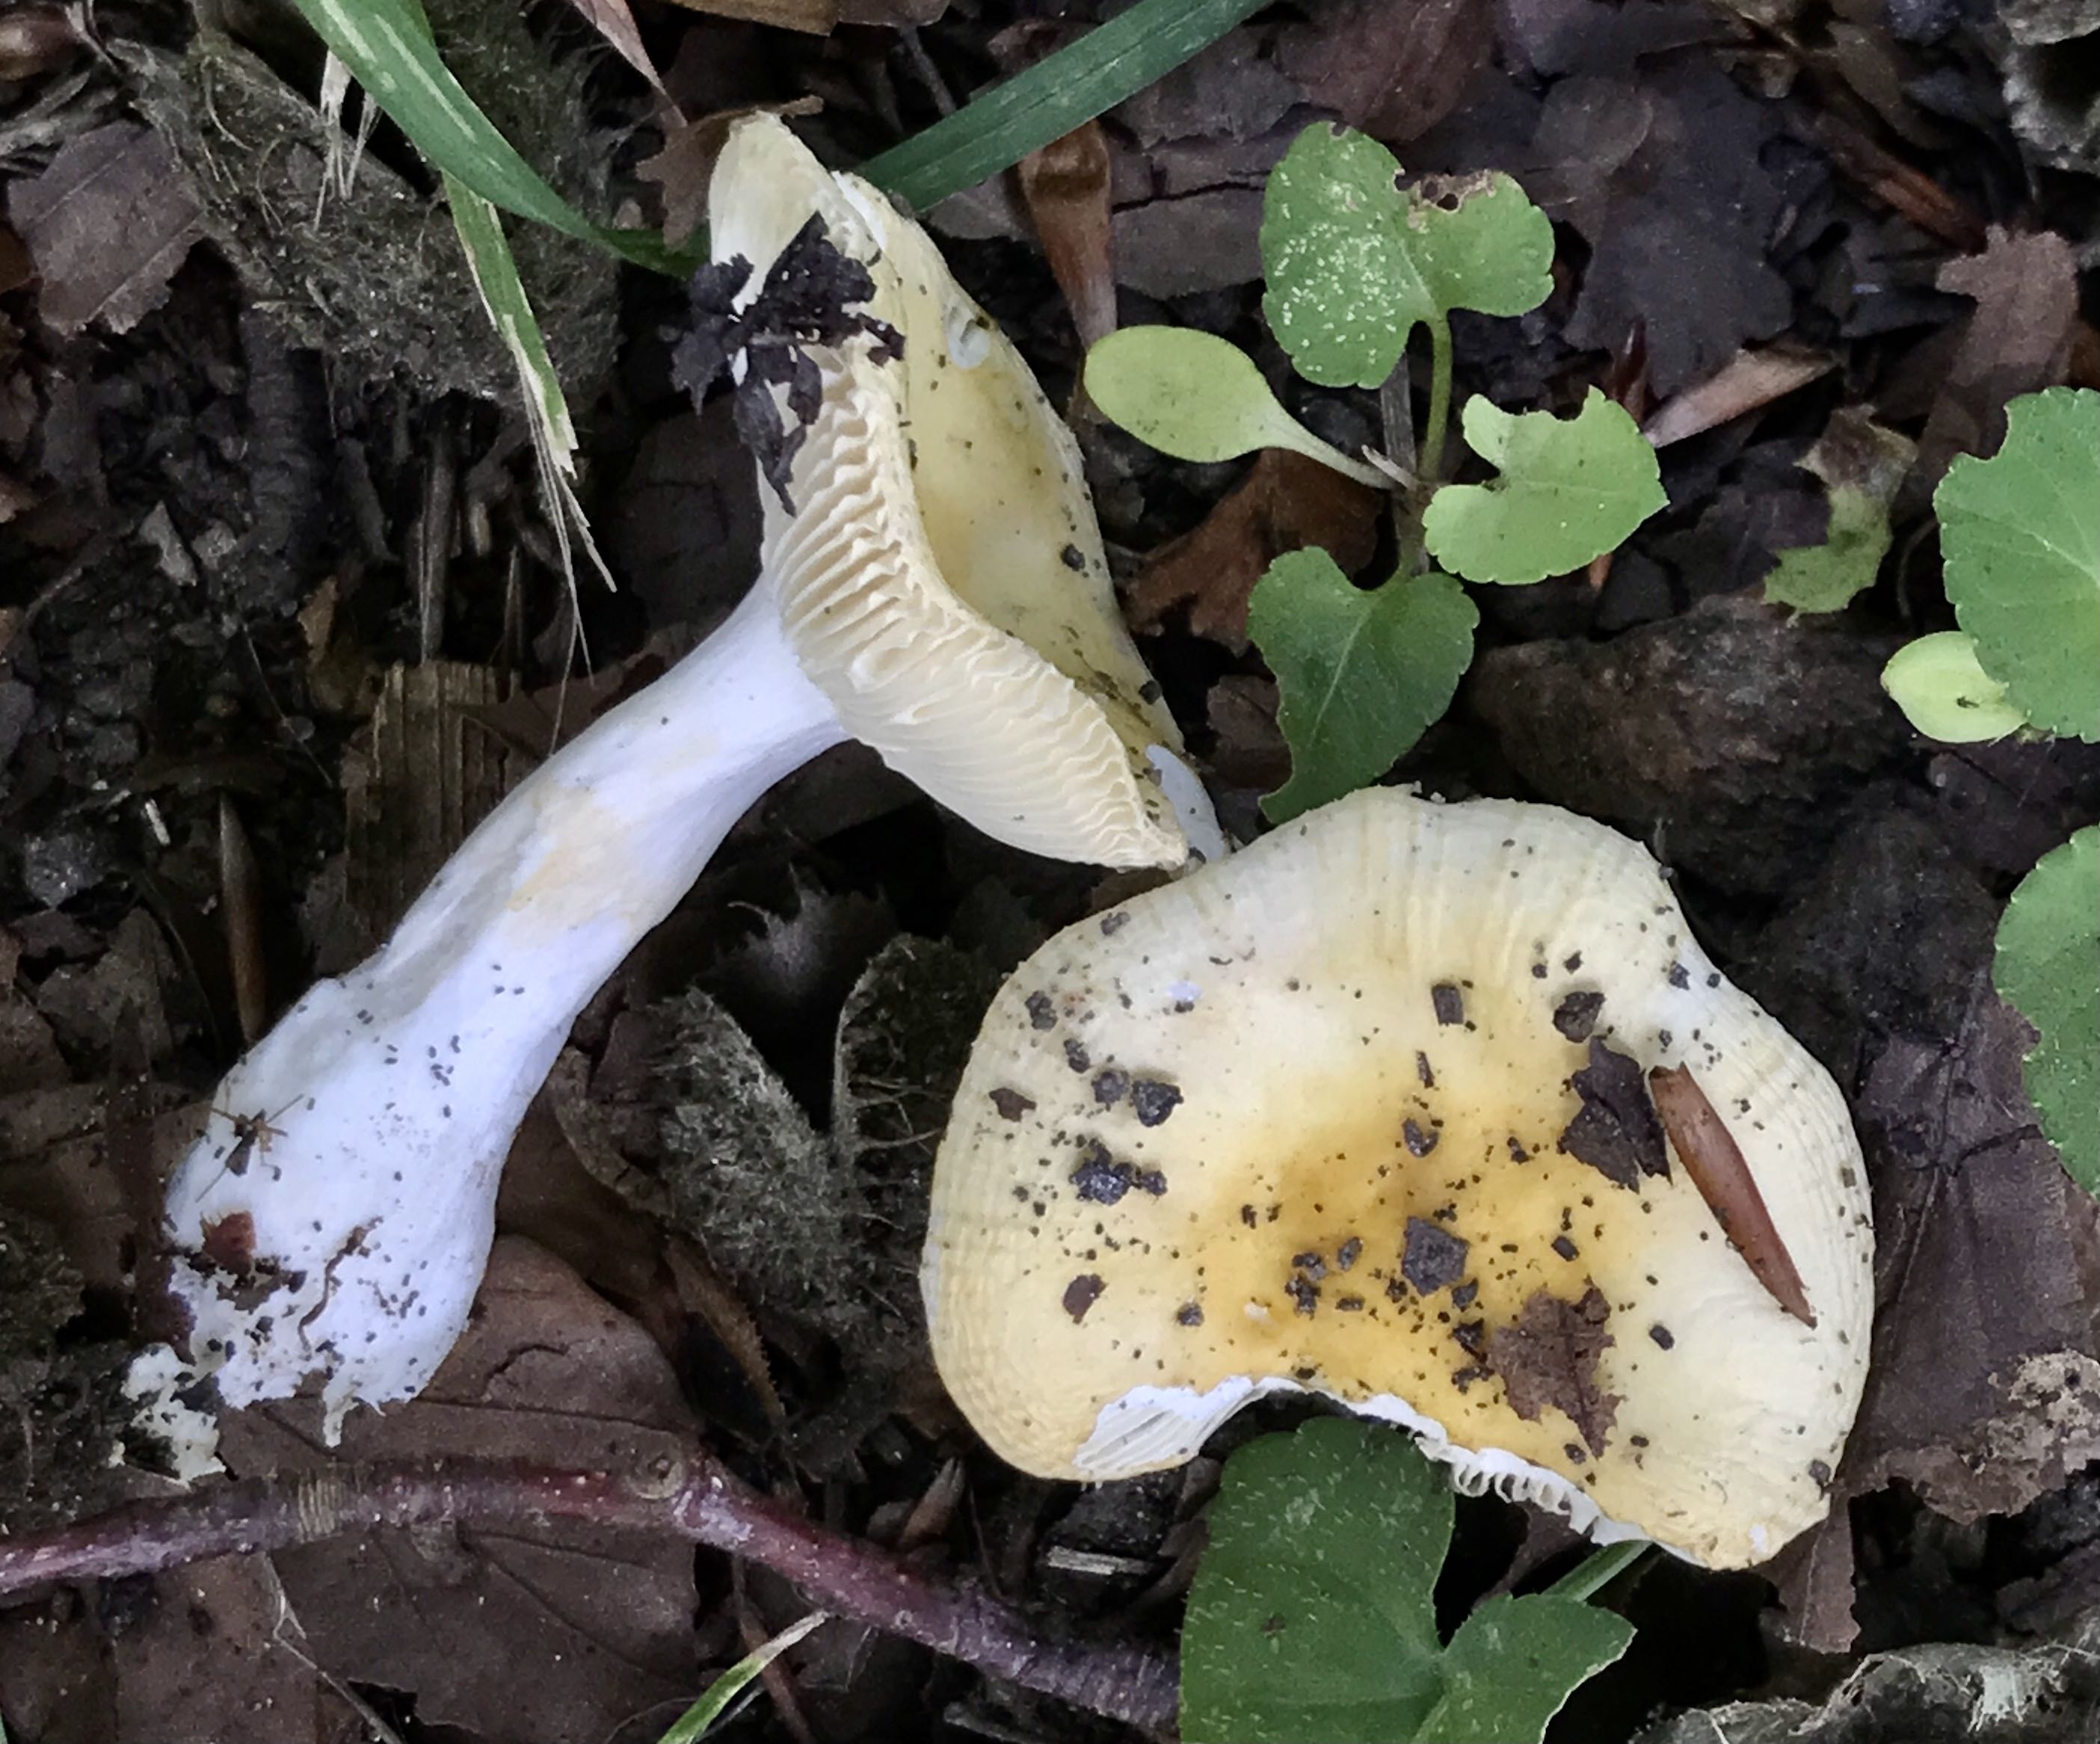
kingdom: Fungi
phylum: Basidiomycota
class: Agaricomycetes
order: Russulales
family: Russulaceae
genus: Russula
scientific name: Russula solaris
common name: sol-skørhat
